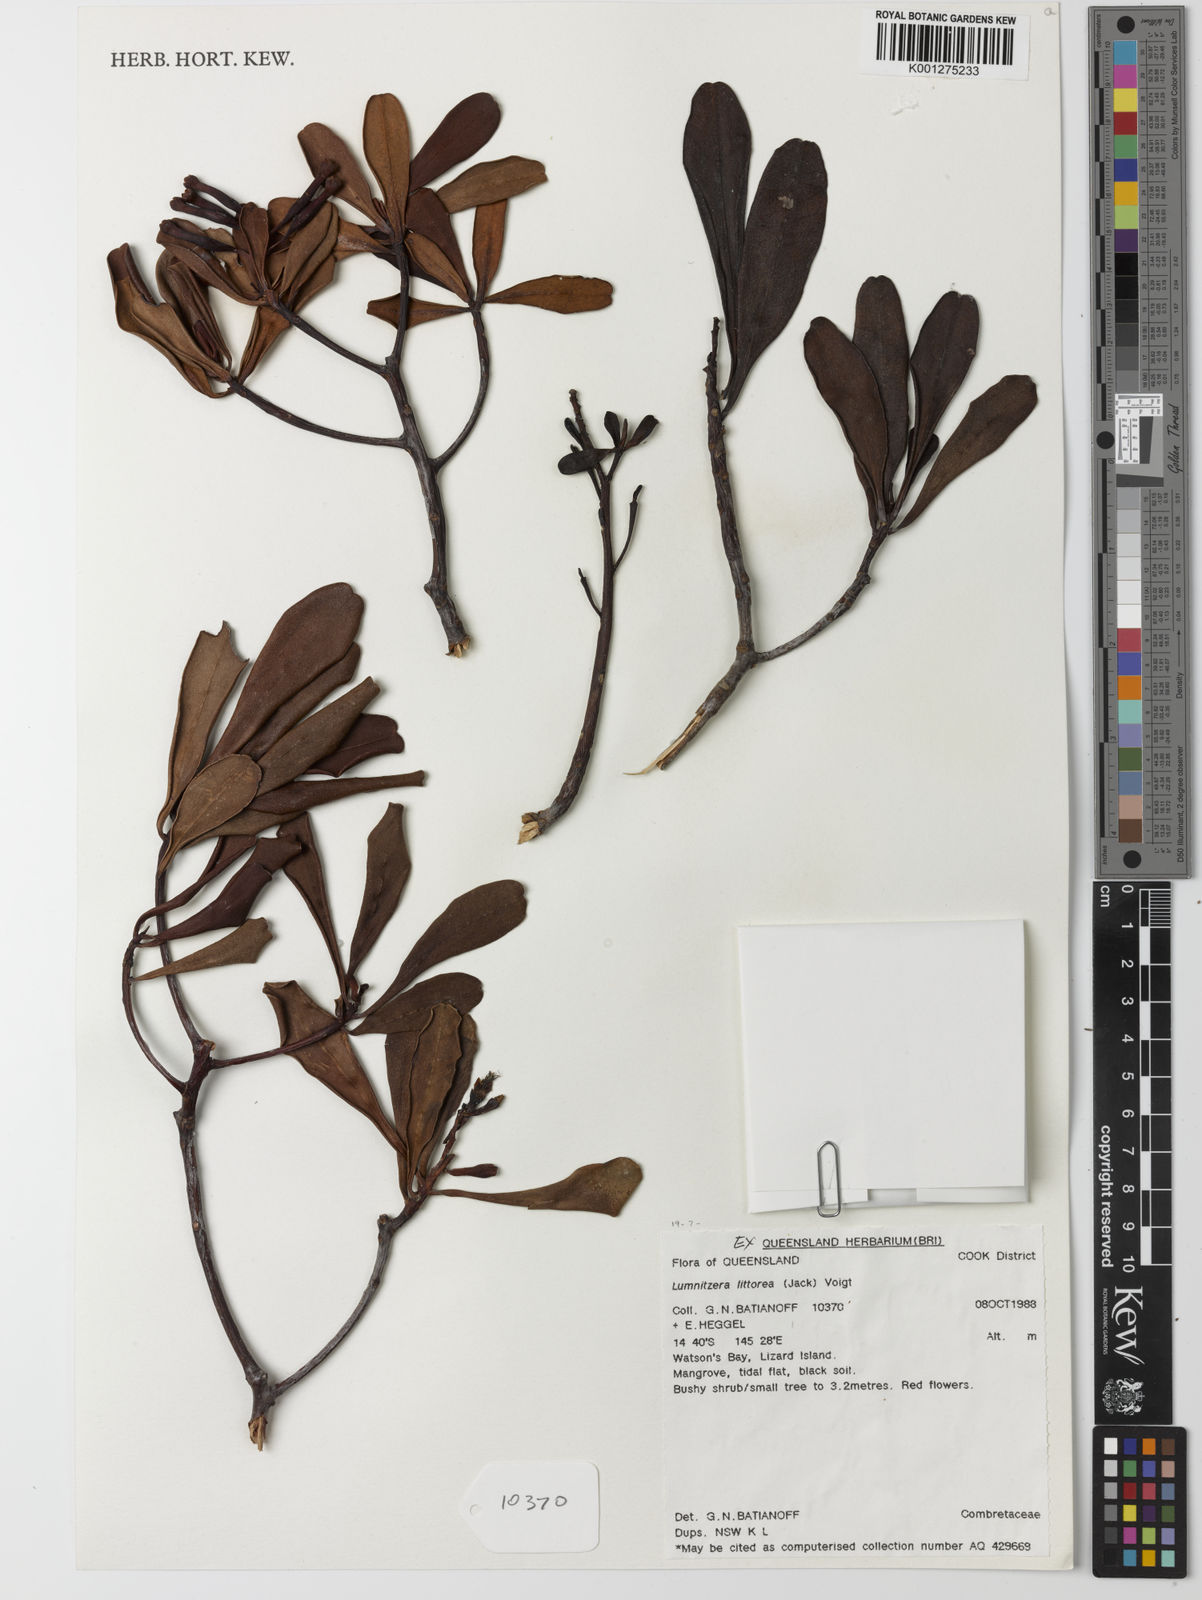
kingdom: Plantae
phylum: Tracheophyta
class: Magnoliopsida
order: Myrtales
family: Combretaceae
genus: Lumnitzera
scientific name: Lumnitzera littorea
